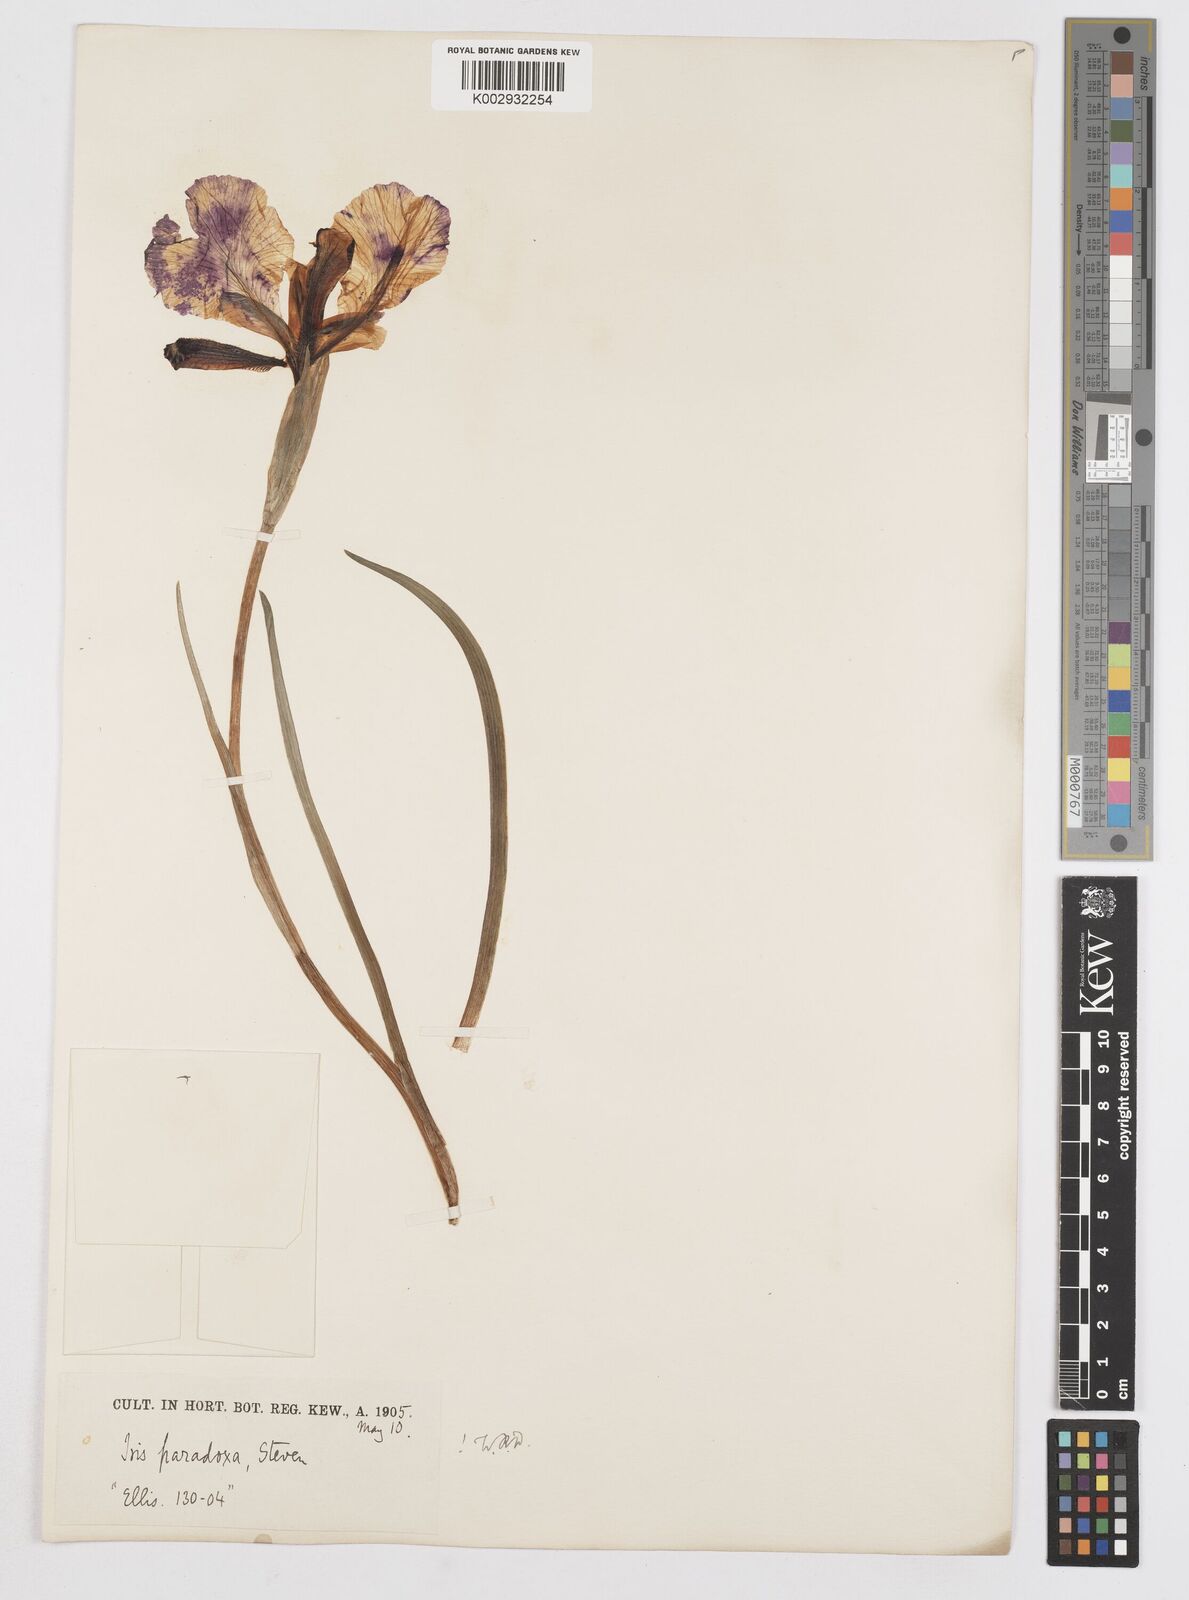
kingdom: Plantae
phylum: Tracheophyta
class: Liliopsida
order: Asparagales
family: Iridaceae
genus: Iris
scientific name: Iris paradoxa
